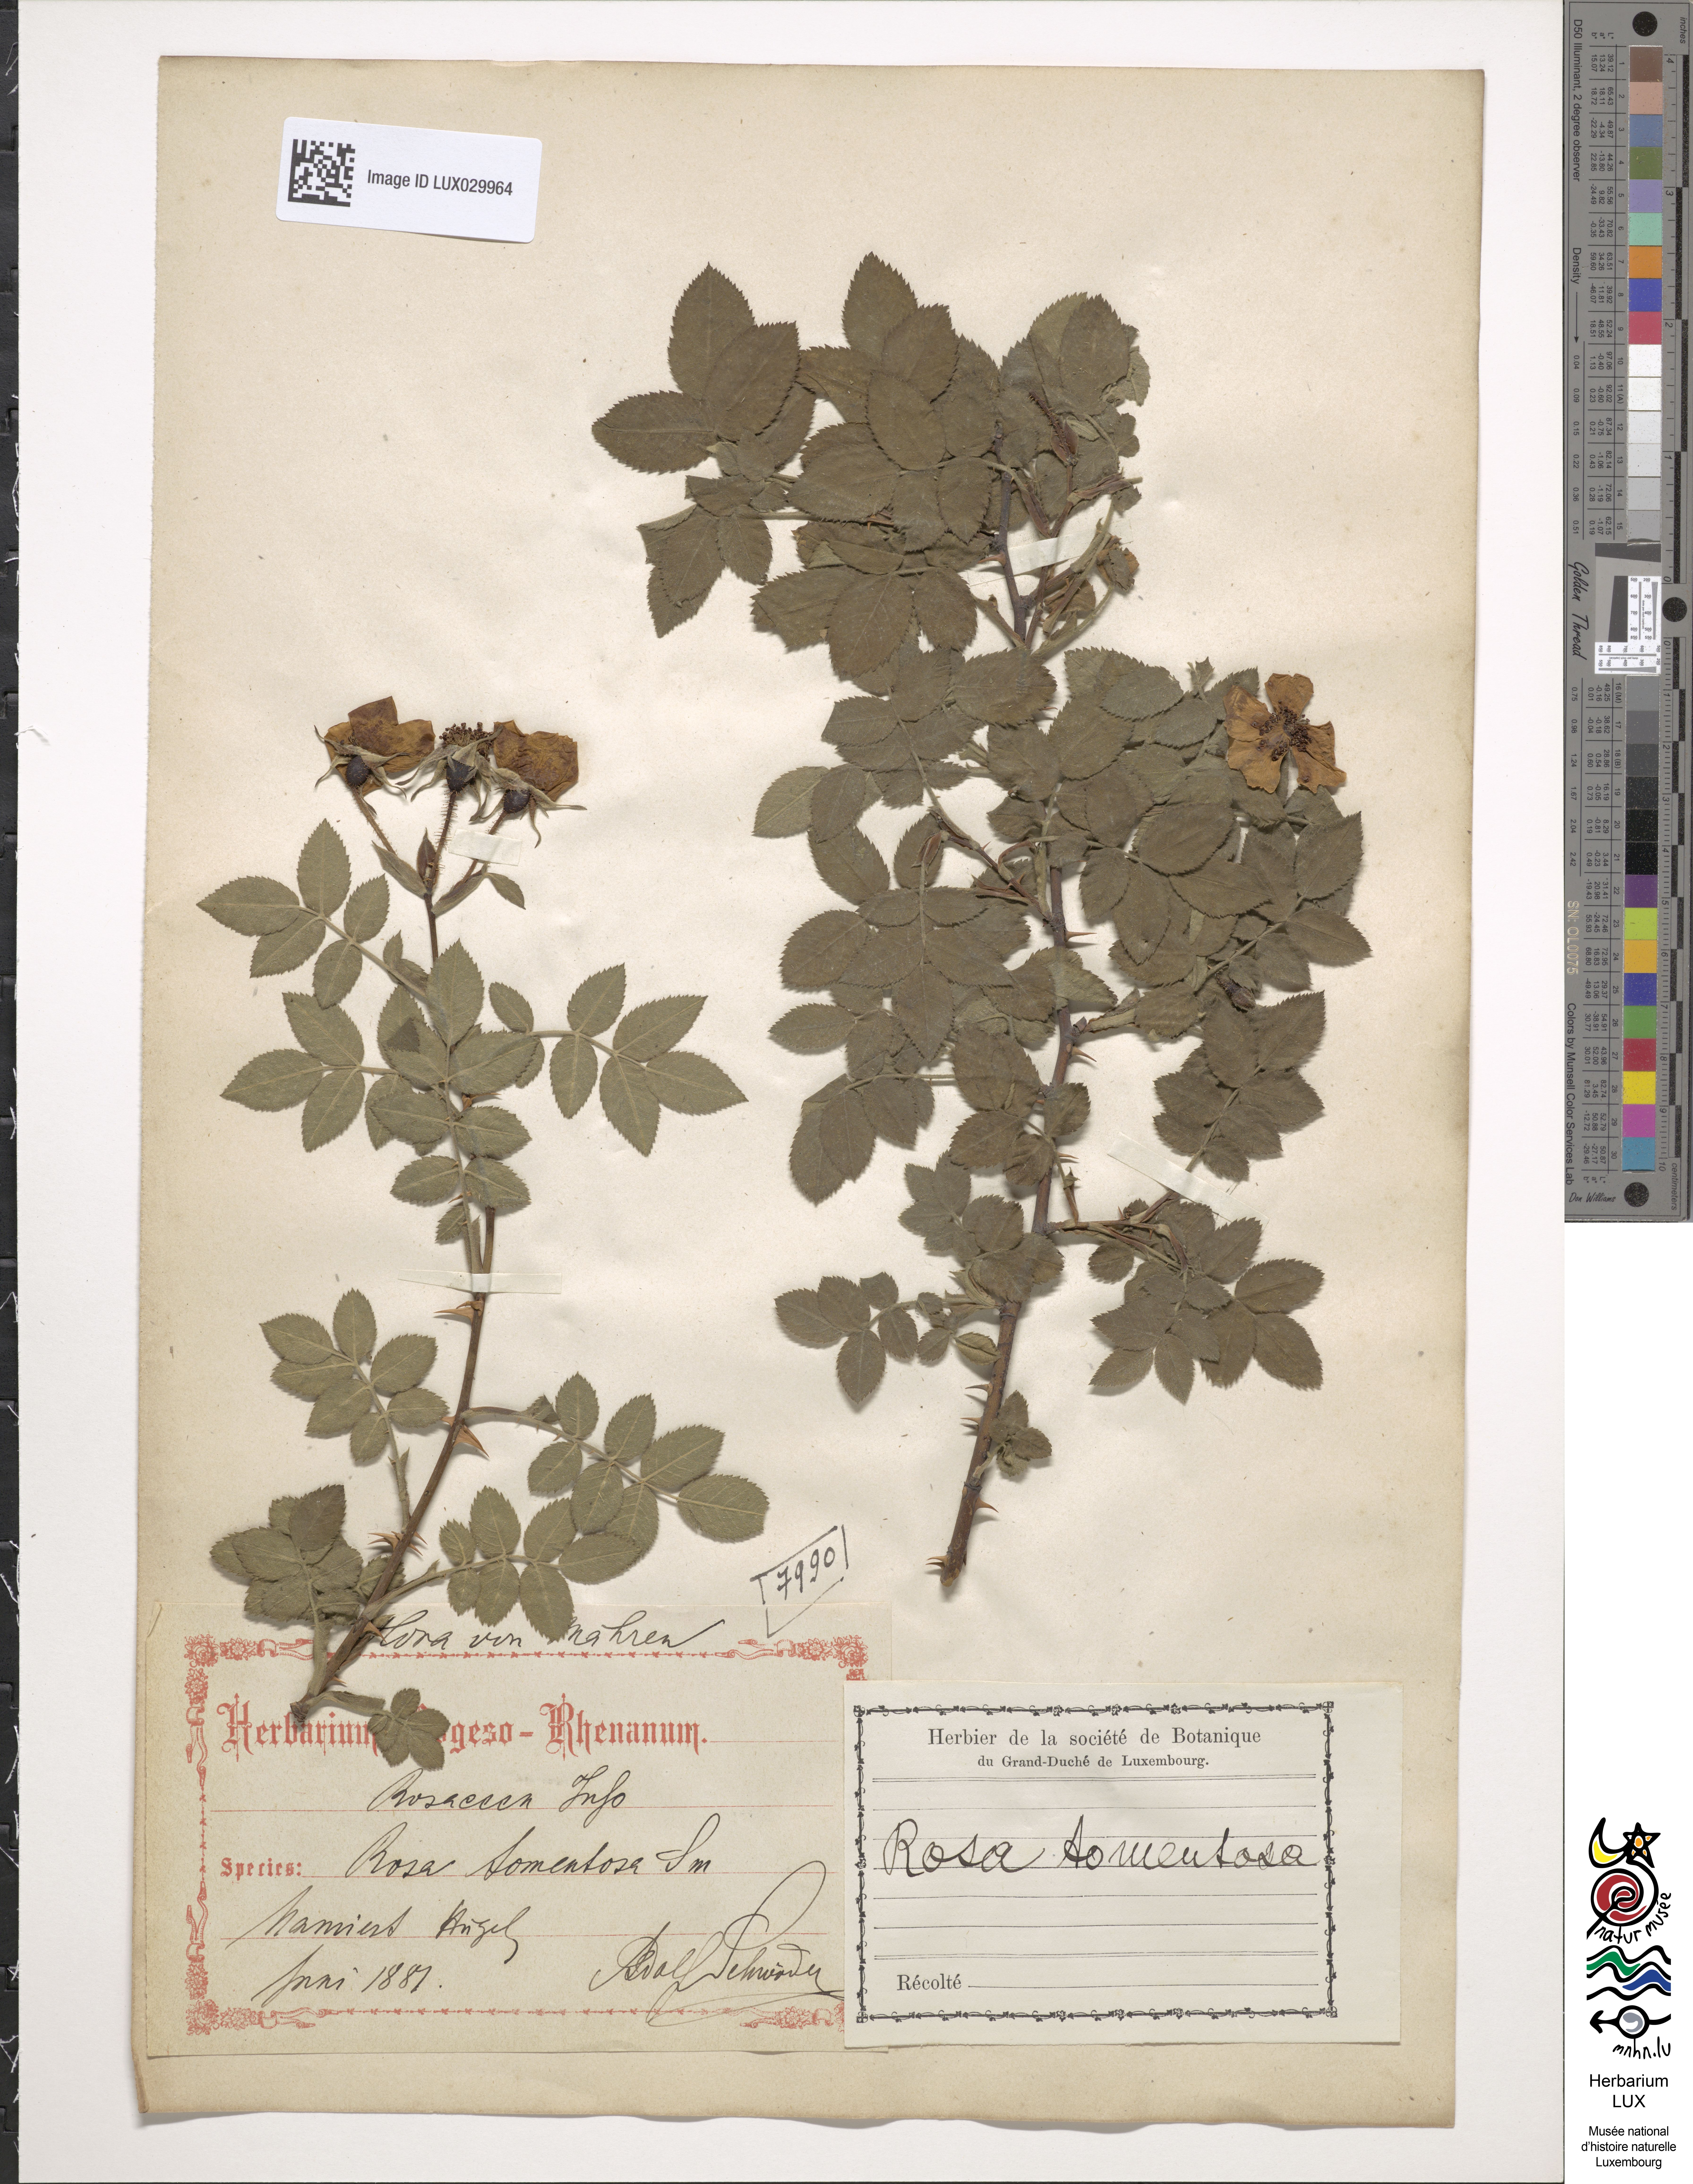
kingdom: Plantae
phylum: Tracheophyta
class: Magnoliopsida
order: Rosales
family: Rosaceae
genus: Rosa
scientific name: Rosa tomentosa
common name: Downy rose
